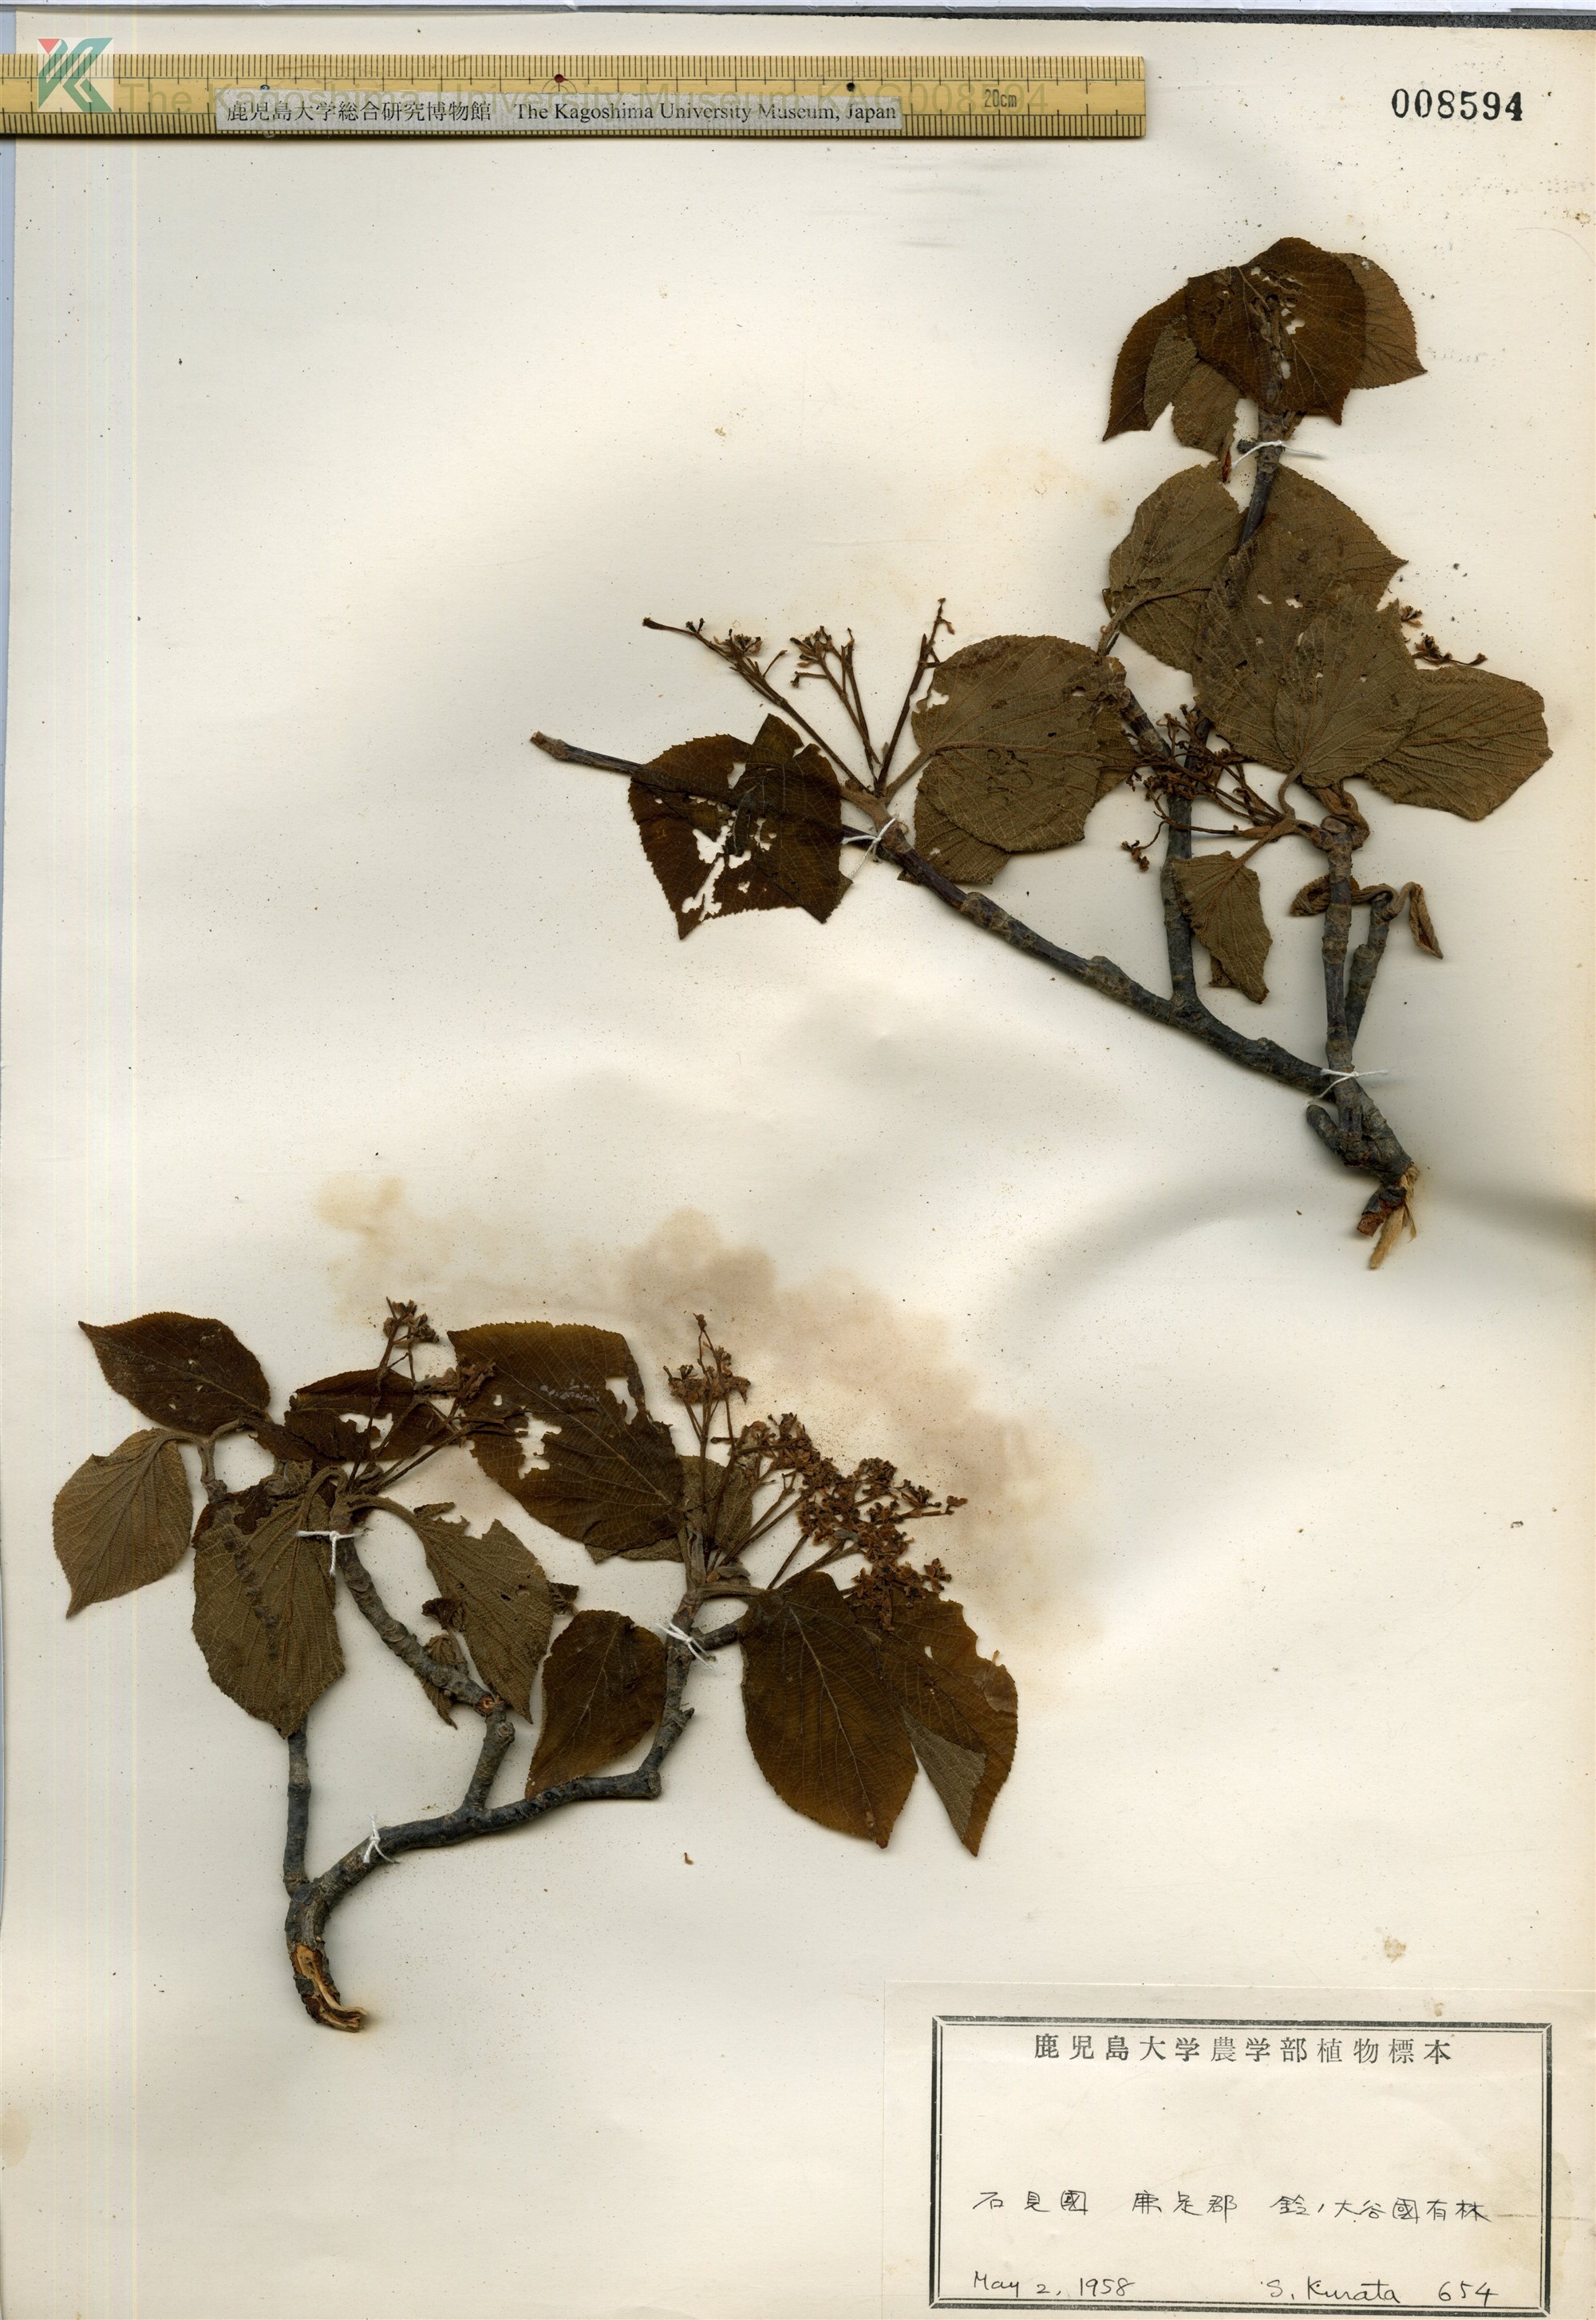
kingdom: Plantae
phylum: Tracheophyta
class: Magnoliopsida
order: Dipsacales
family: Viburnaceae
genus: Viburnum
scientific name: Viburnum furcatum
